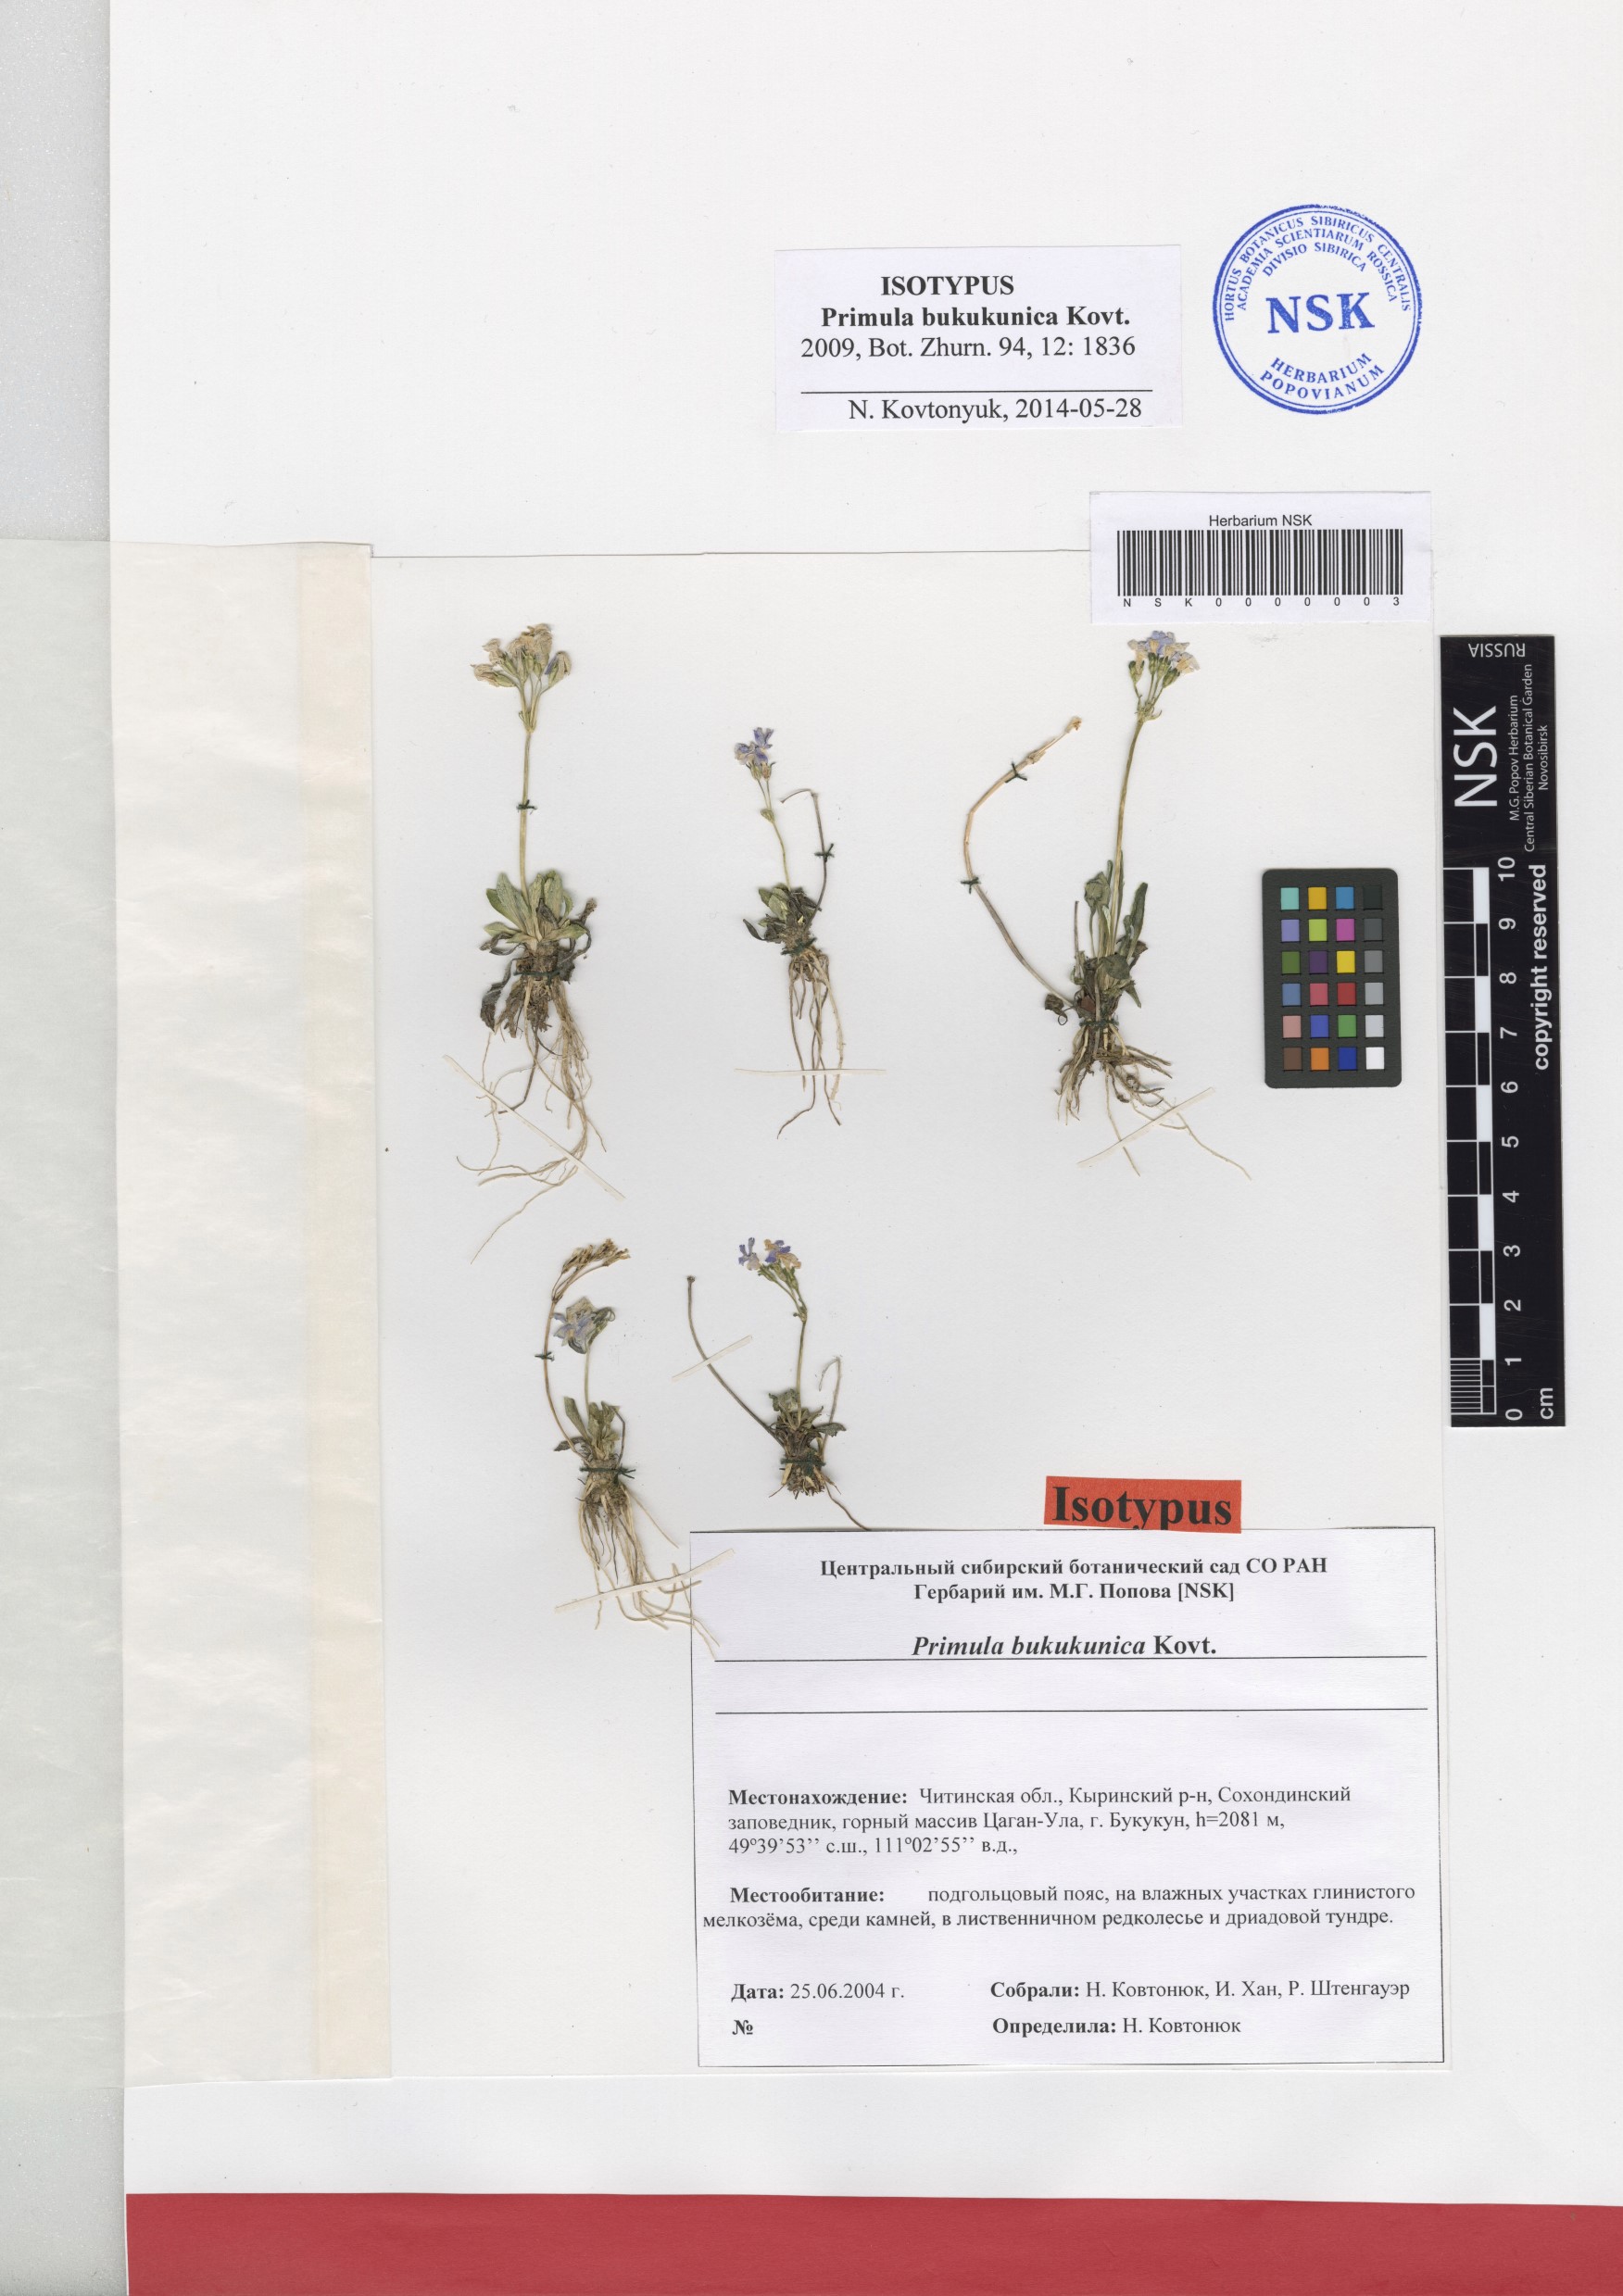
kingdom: Plantae
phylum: Tracheophyta
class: Magnoliopsida
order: Ericales
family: Primulaceae
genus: Primula
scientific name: Primula bukukunica
